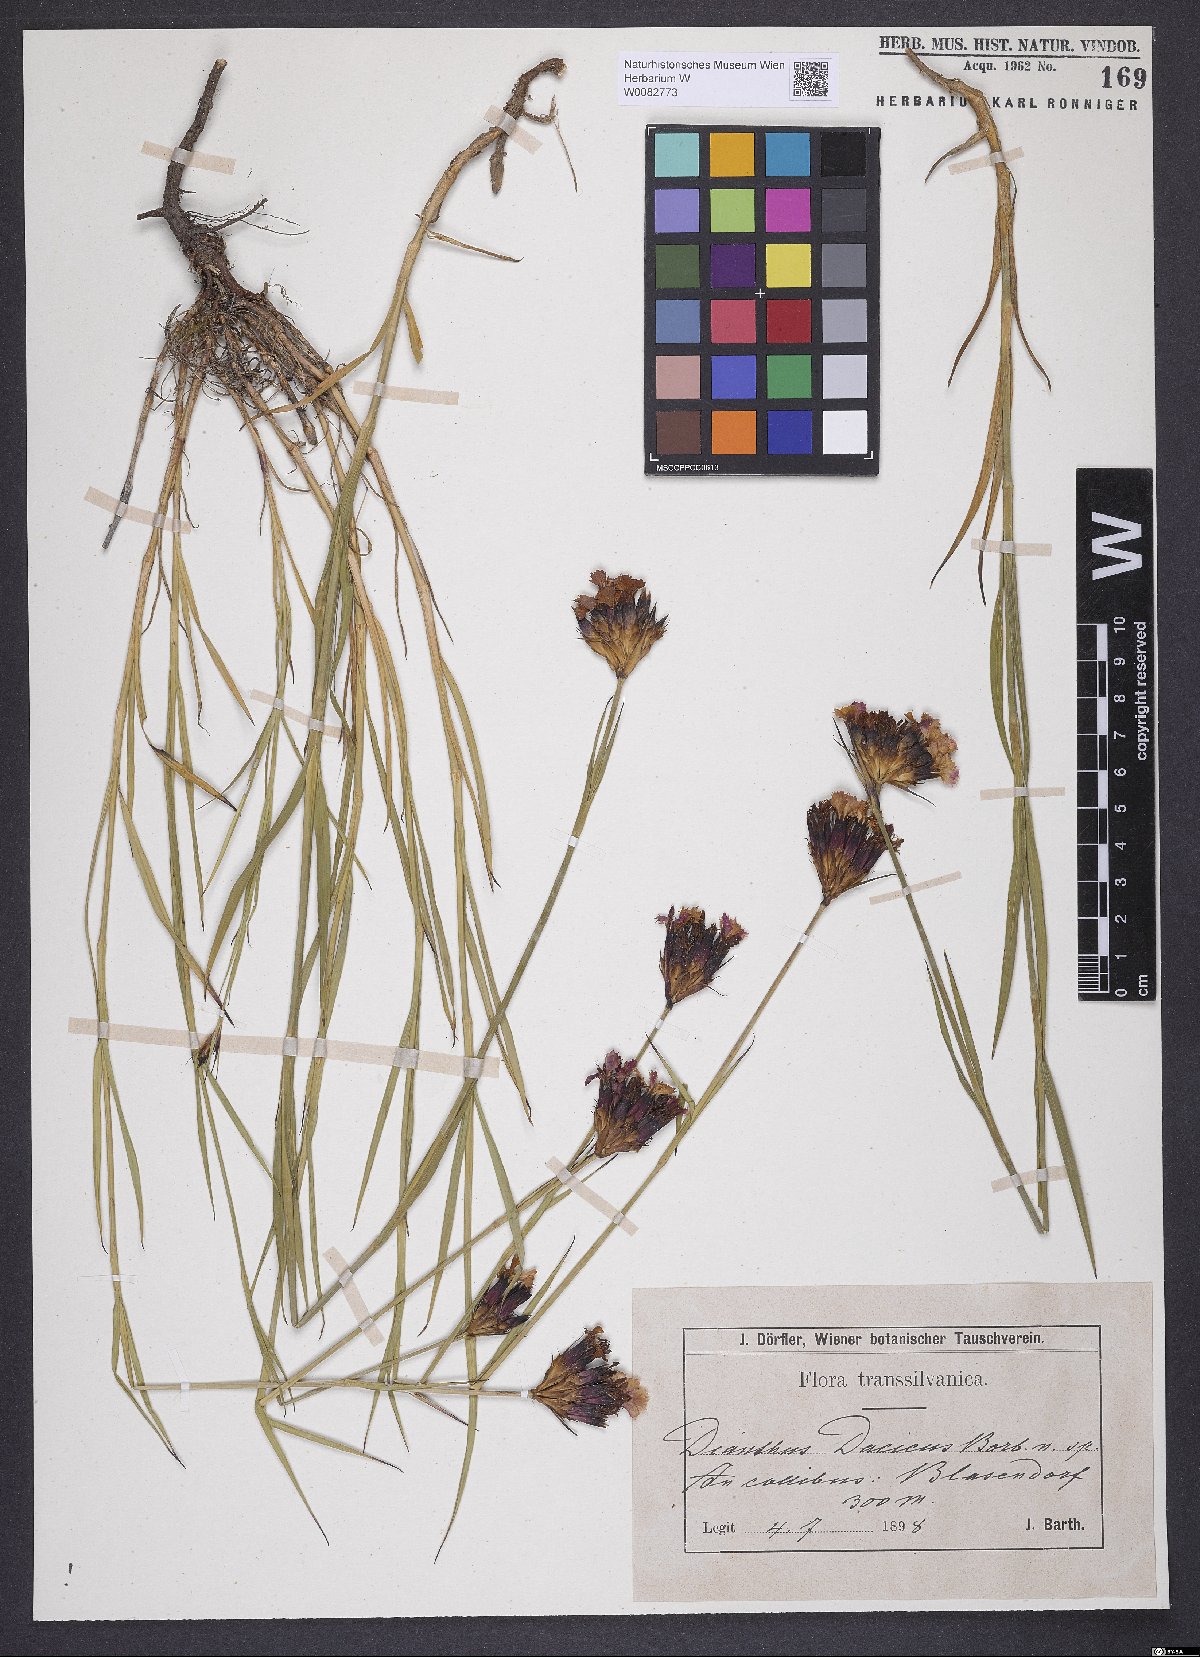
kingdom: Plantae
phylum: Tracheophyta
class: Magnoliopsida
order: Caryophyllales
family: Caryophyllaceae
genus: Dianthus
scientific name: Dianthus
